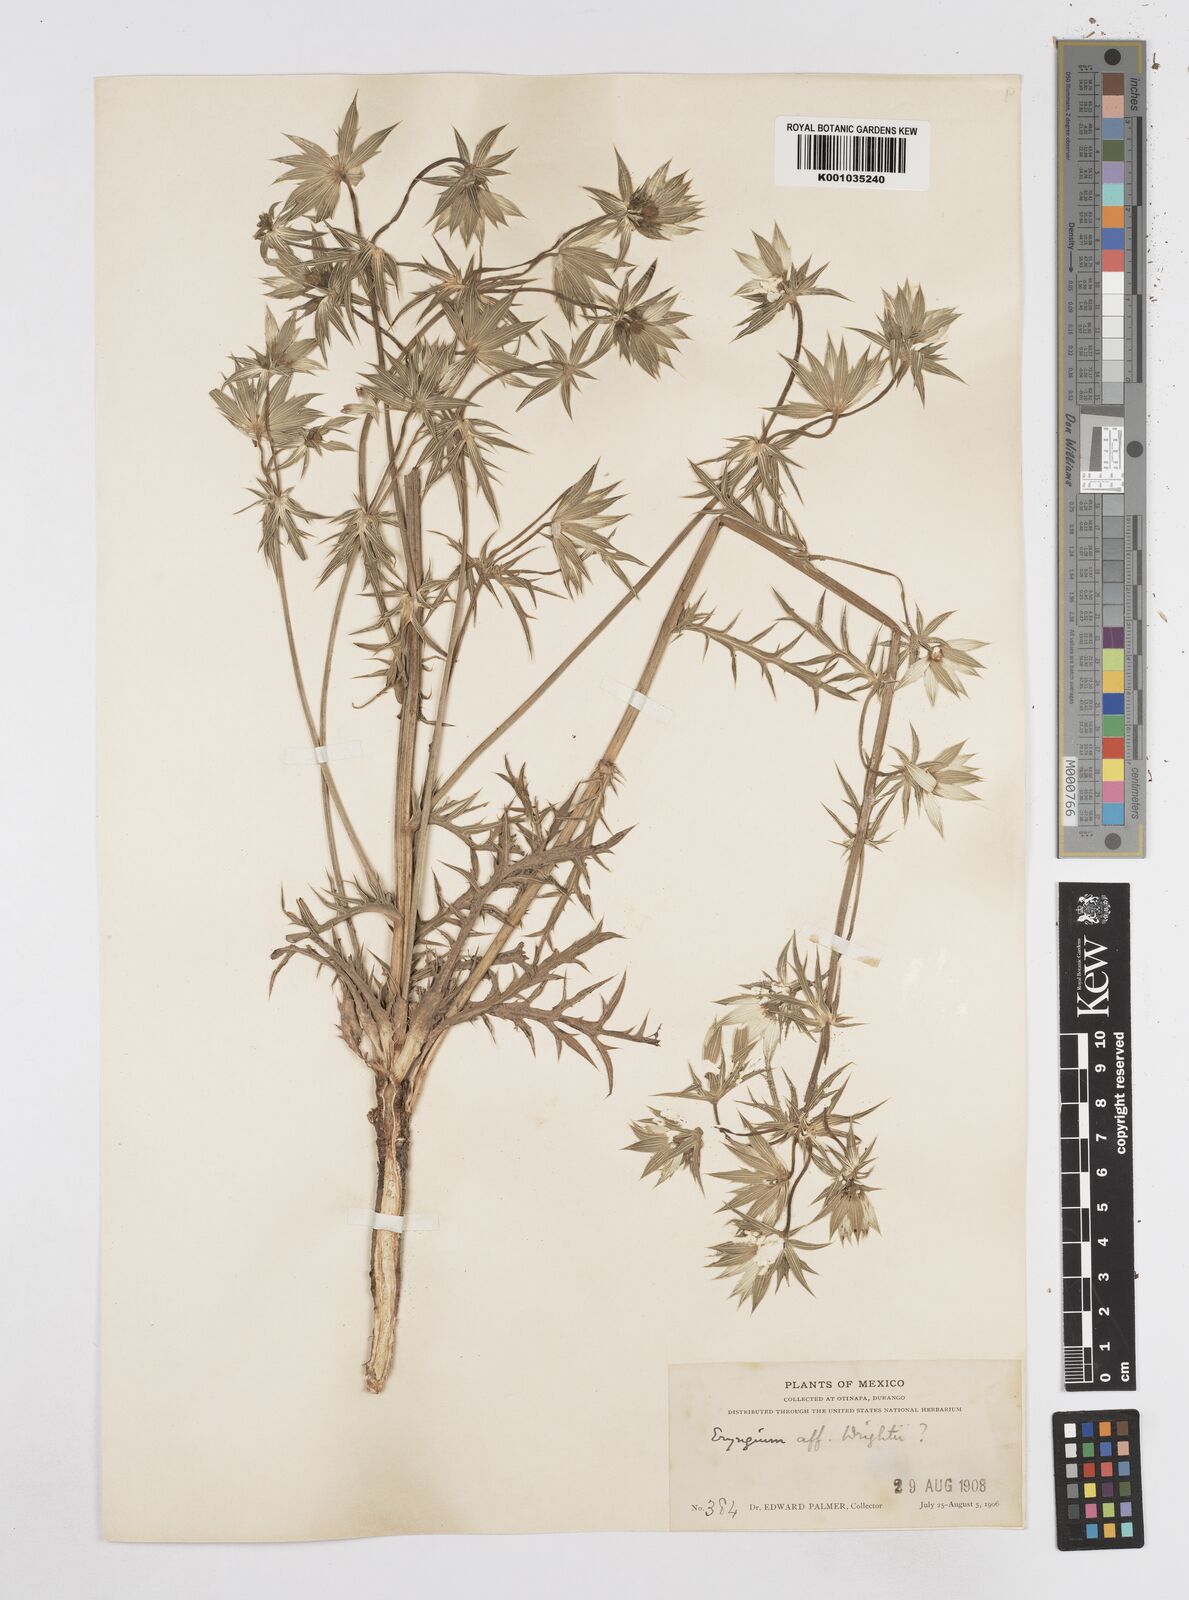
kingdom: Plantae
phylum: Tracheophyta
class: Magnoliopsida
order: Apiales
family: Apiaceae
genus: Eryngium
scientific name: Eryngium heterophyllum
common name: Mexican thistle
